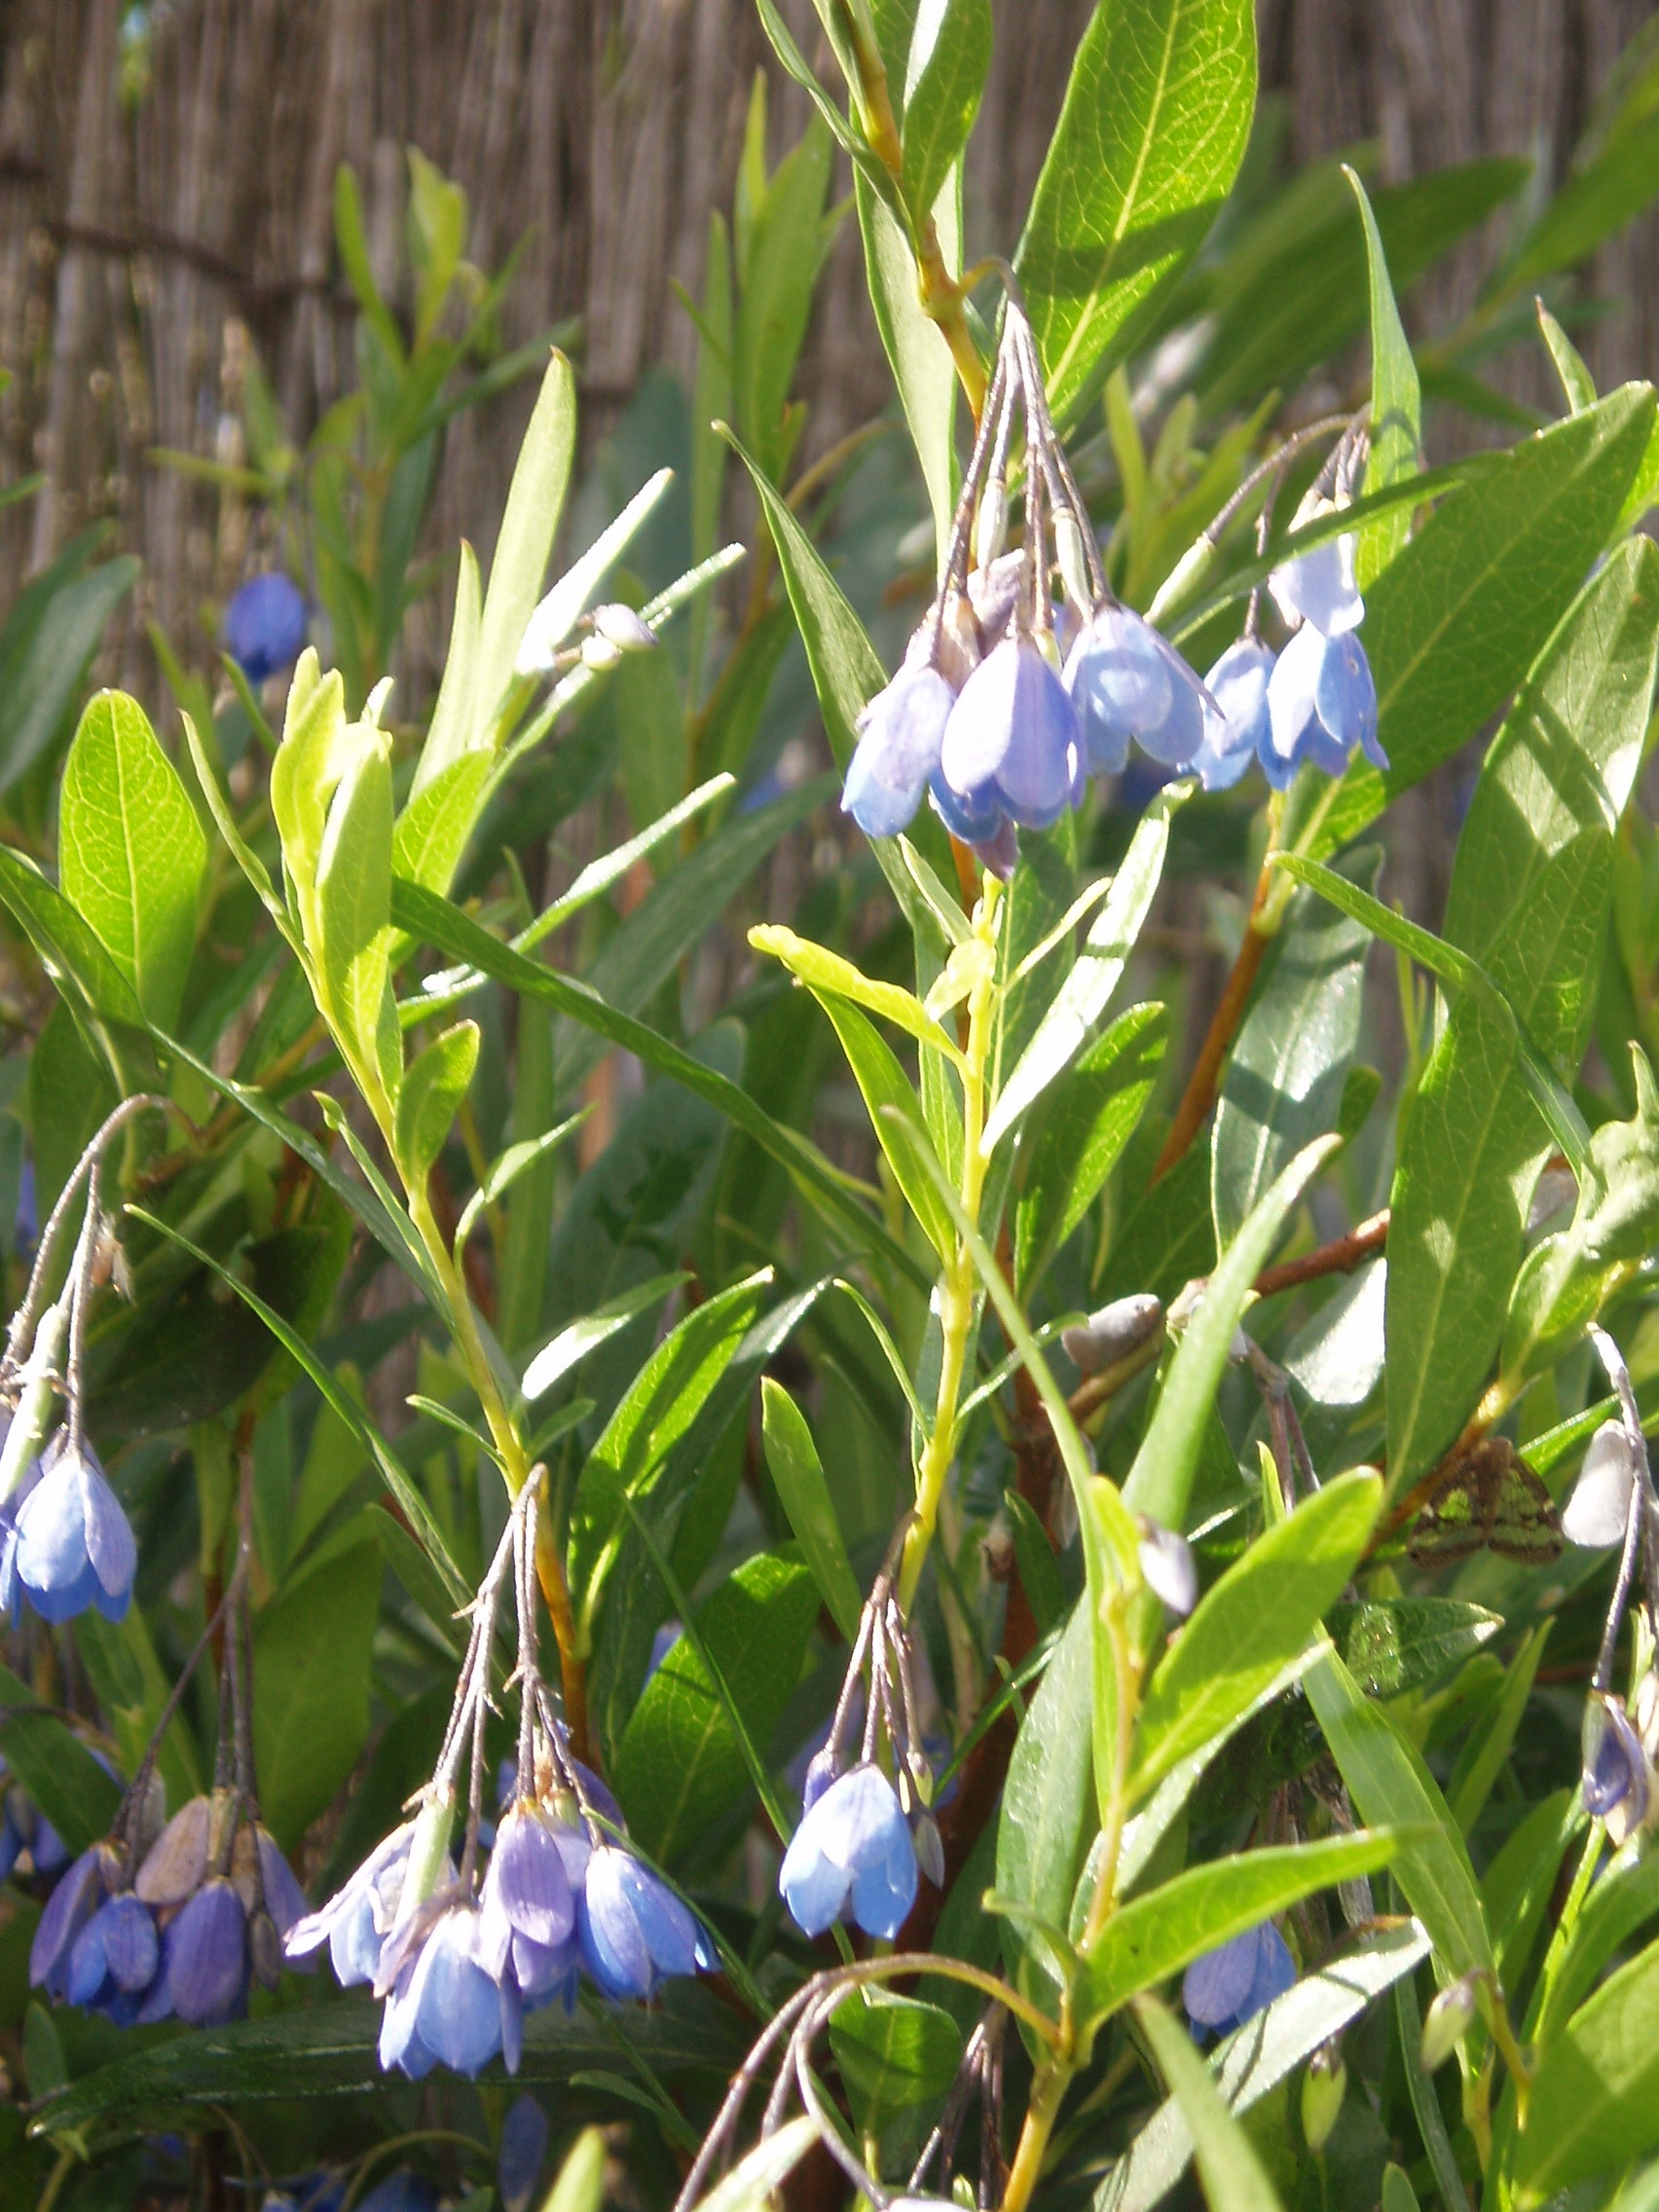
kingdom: Plantae
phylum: Tracheophyta
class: Magnoliopsida
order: Apiales
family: Pittosporaceae
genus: Billardiera
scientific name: Billardiera heterophylla
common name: Bluebell creeper
